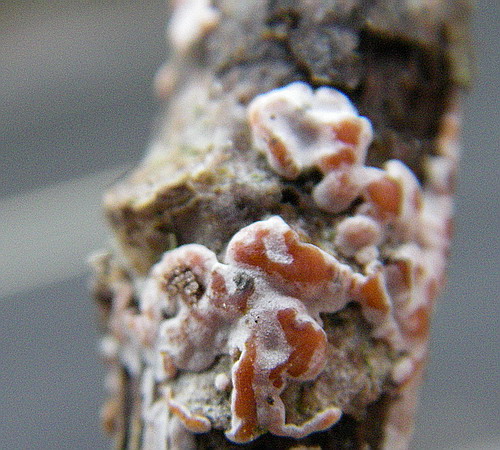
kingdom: Fungi
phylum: Basidiomycota
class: Agaricomycetes
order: Russulales
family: Peniophoraceae
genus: Peniophora
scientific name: Peniophora polygonia
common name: polygon-voksskind
